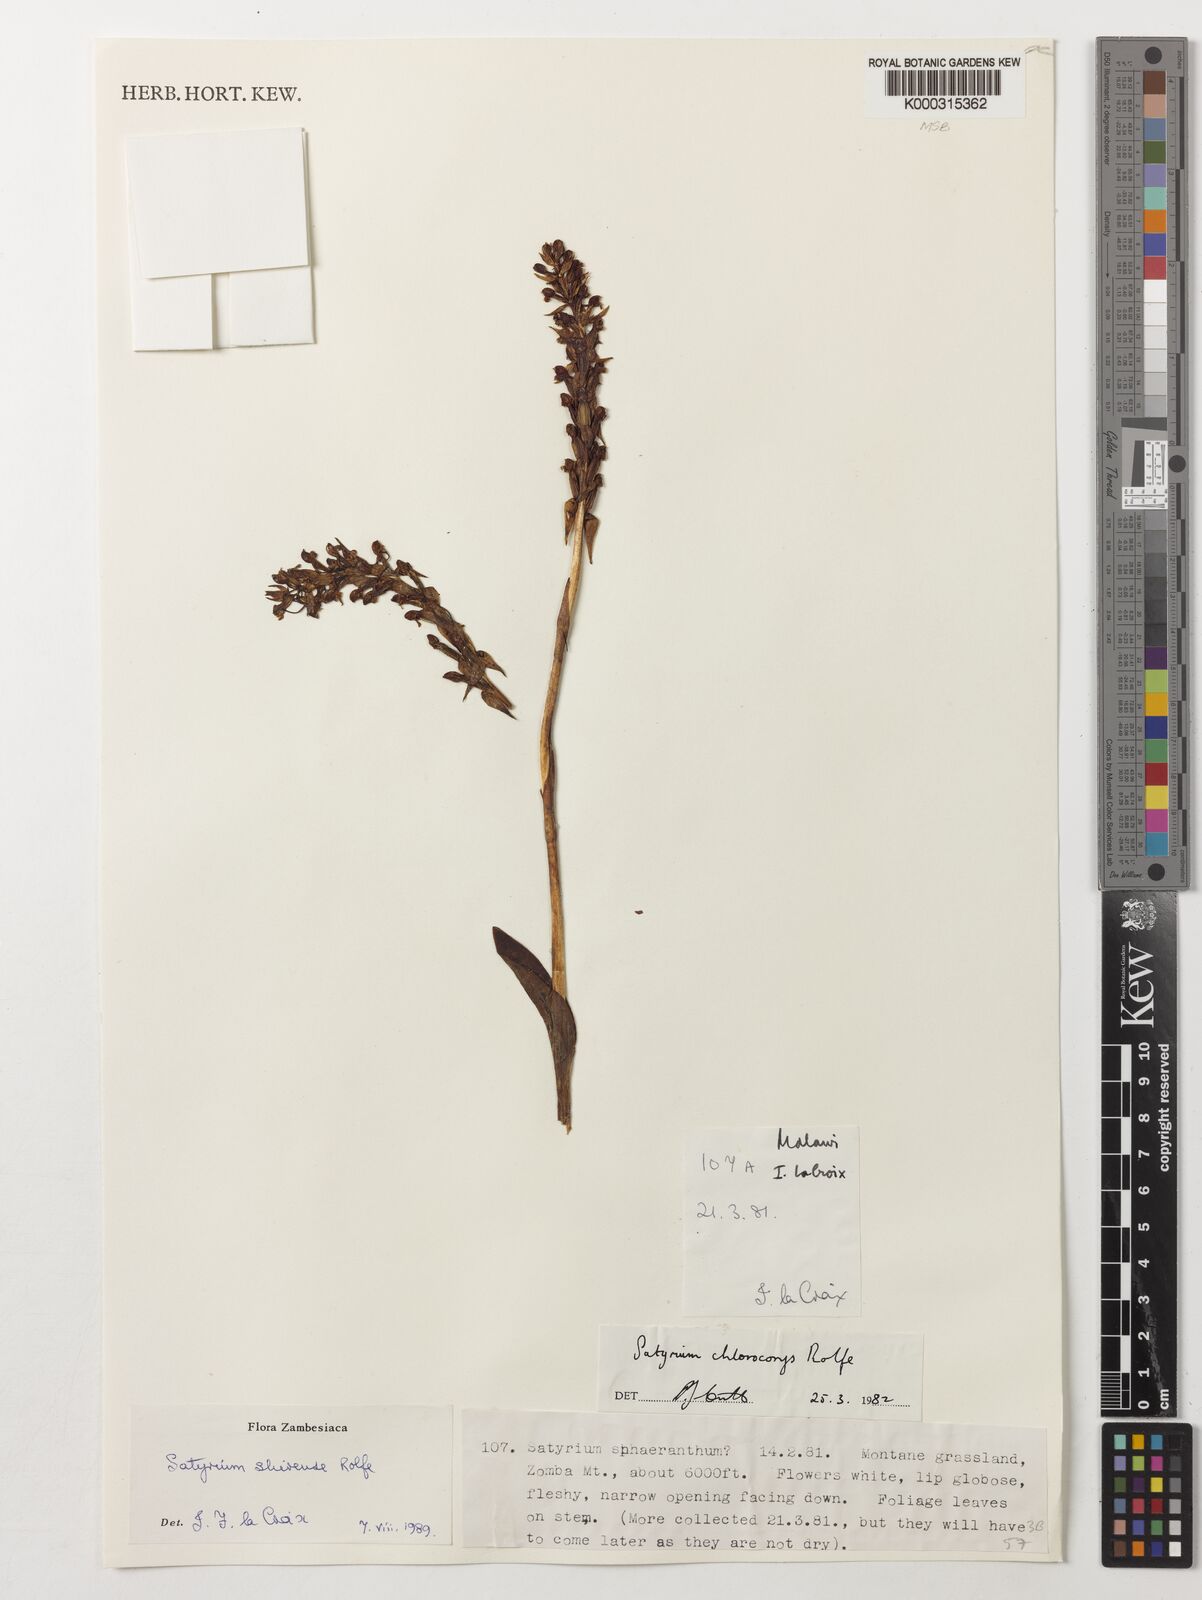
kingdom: Plantae
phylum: Tracheophyta
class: Liliopsida
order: Asparagales
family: Orchidaceae
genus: Satyrium
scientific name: Satyrium shirense
